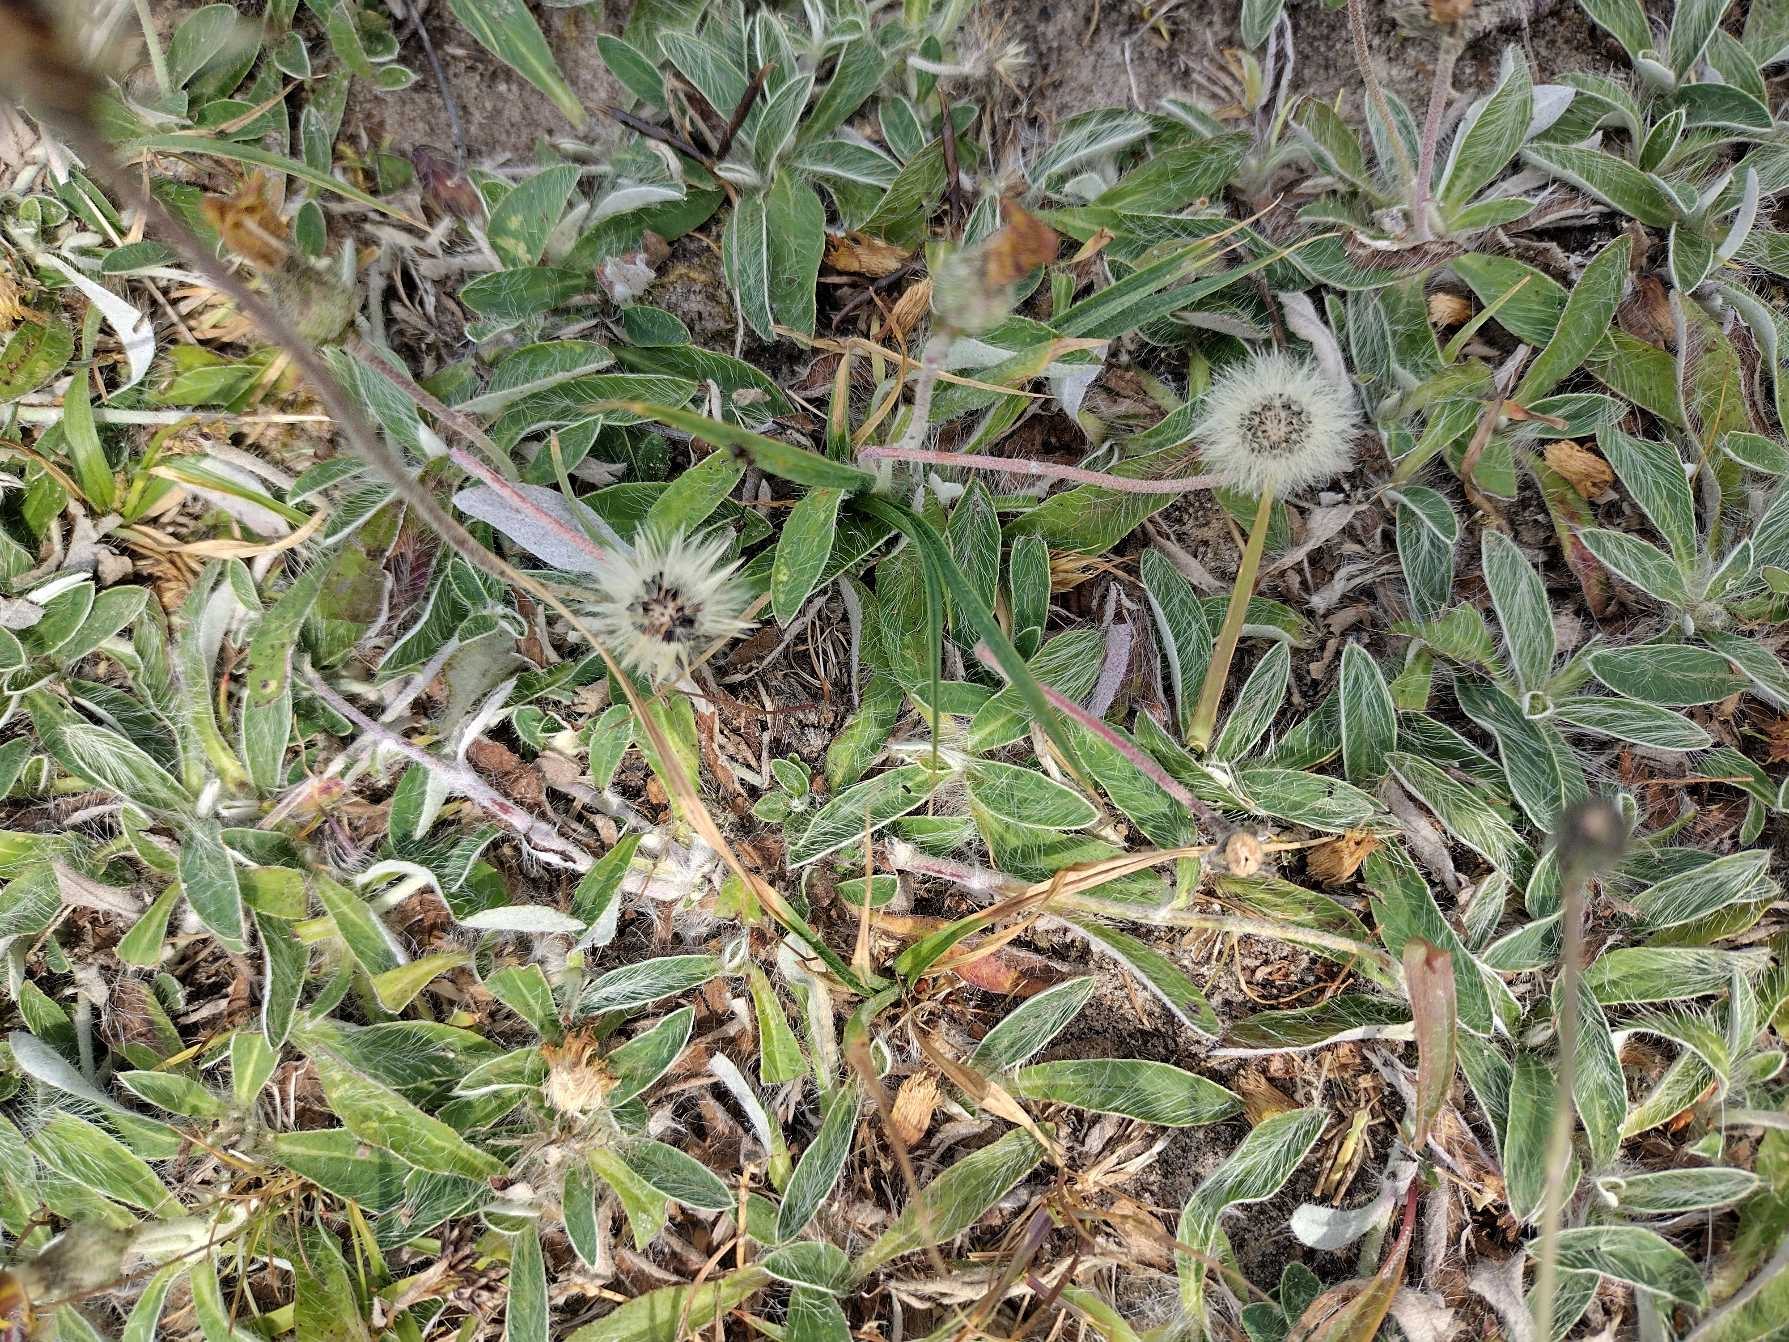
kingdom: Plantae
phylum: Tracheophyta
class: Magnoliopsida
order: Asterales
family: Asteraceae
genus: Pilosella
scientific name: Pilosella officinarum
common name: Håret høgeurt
